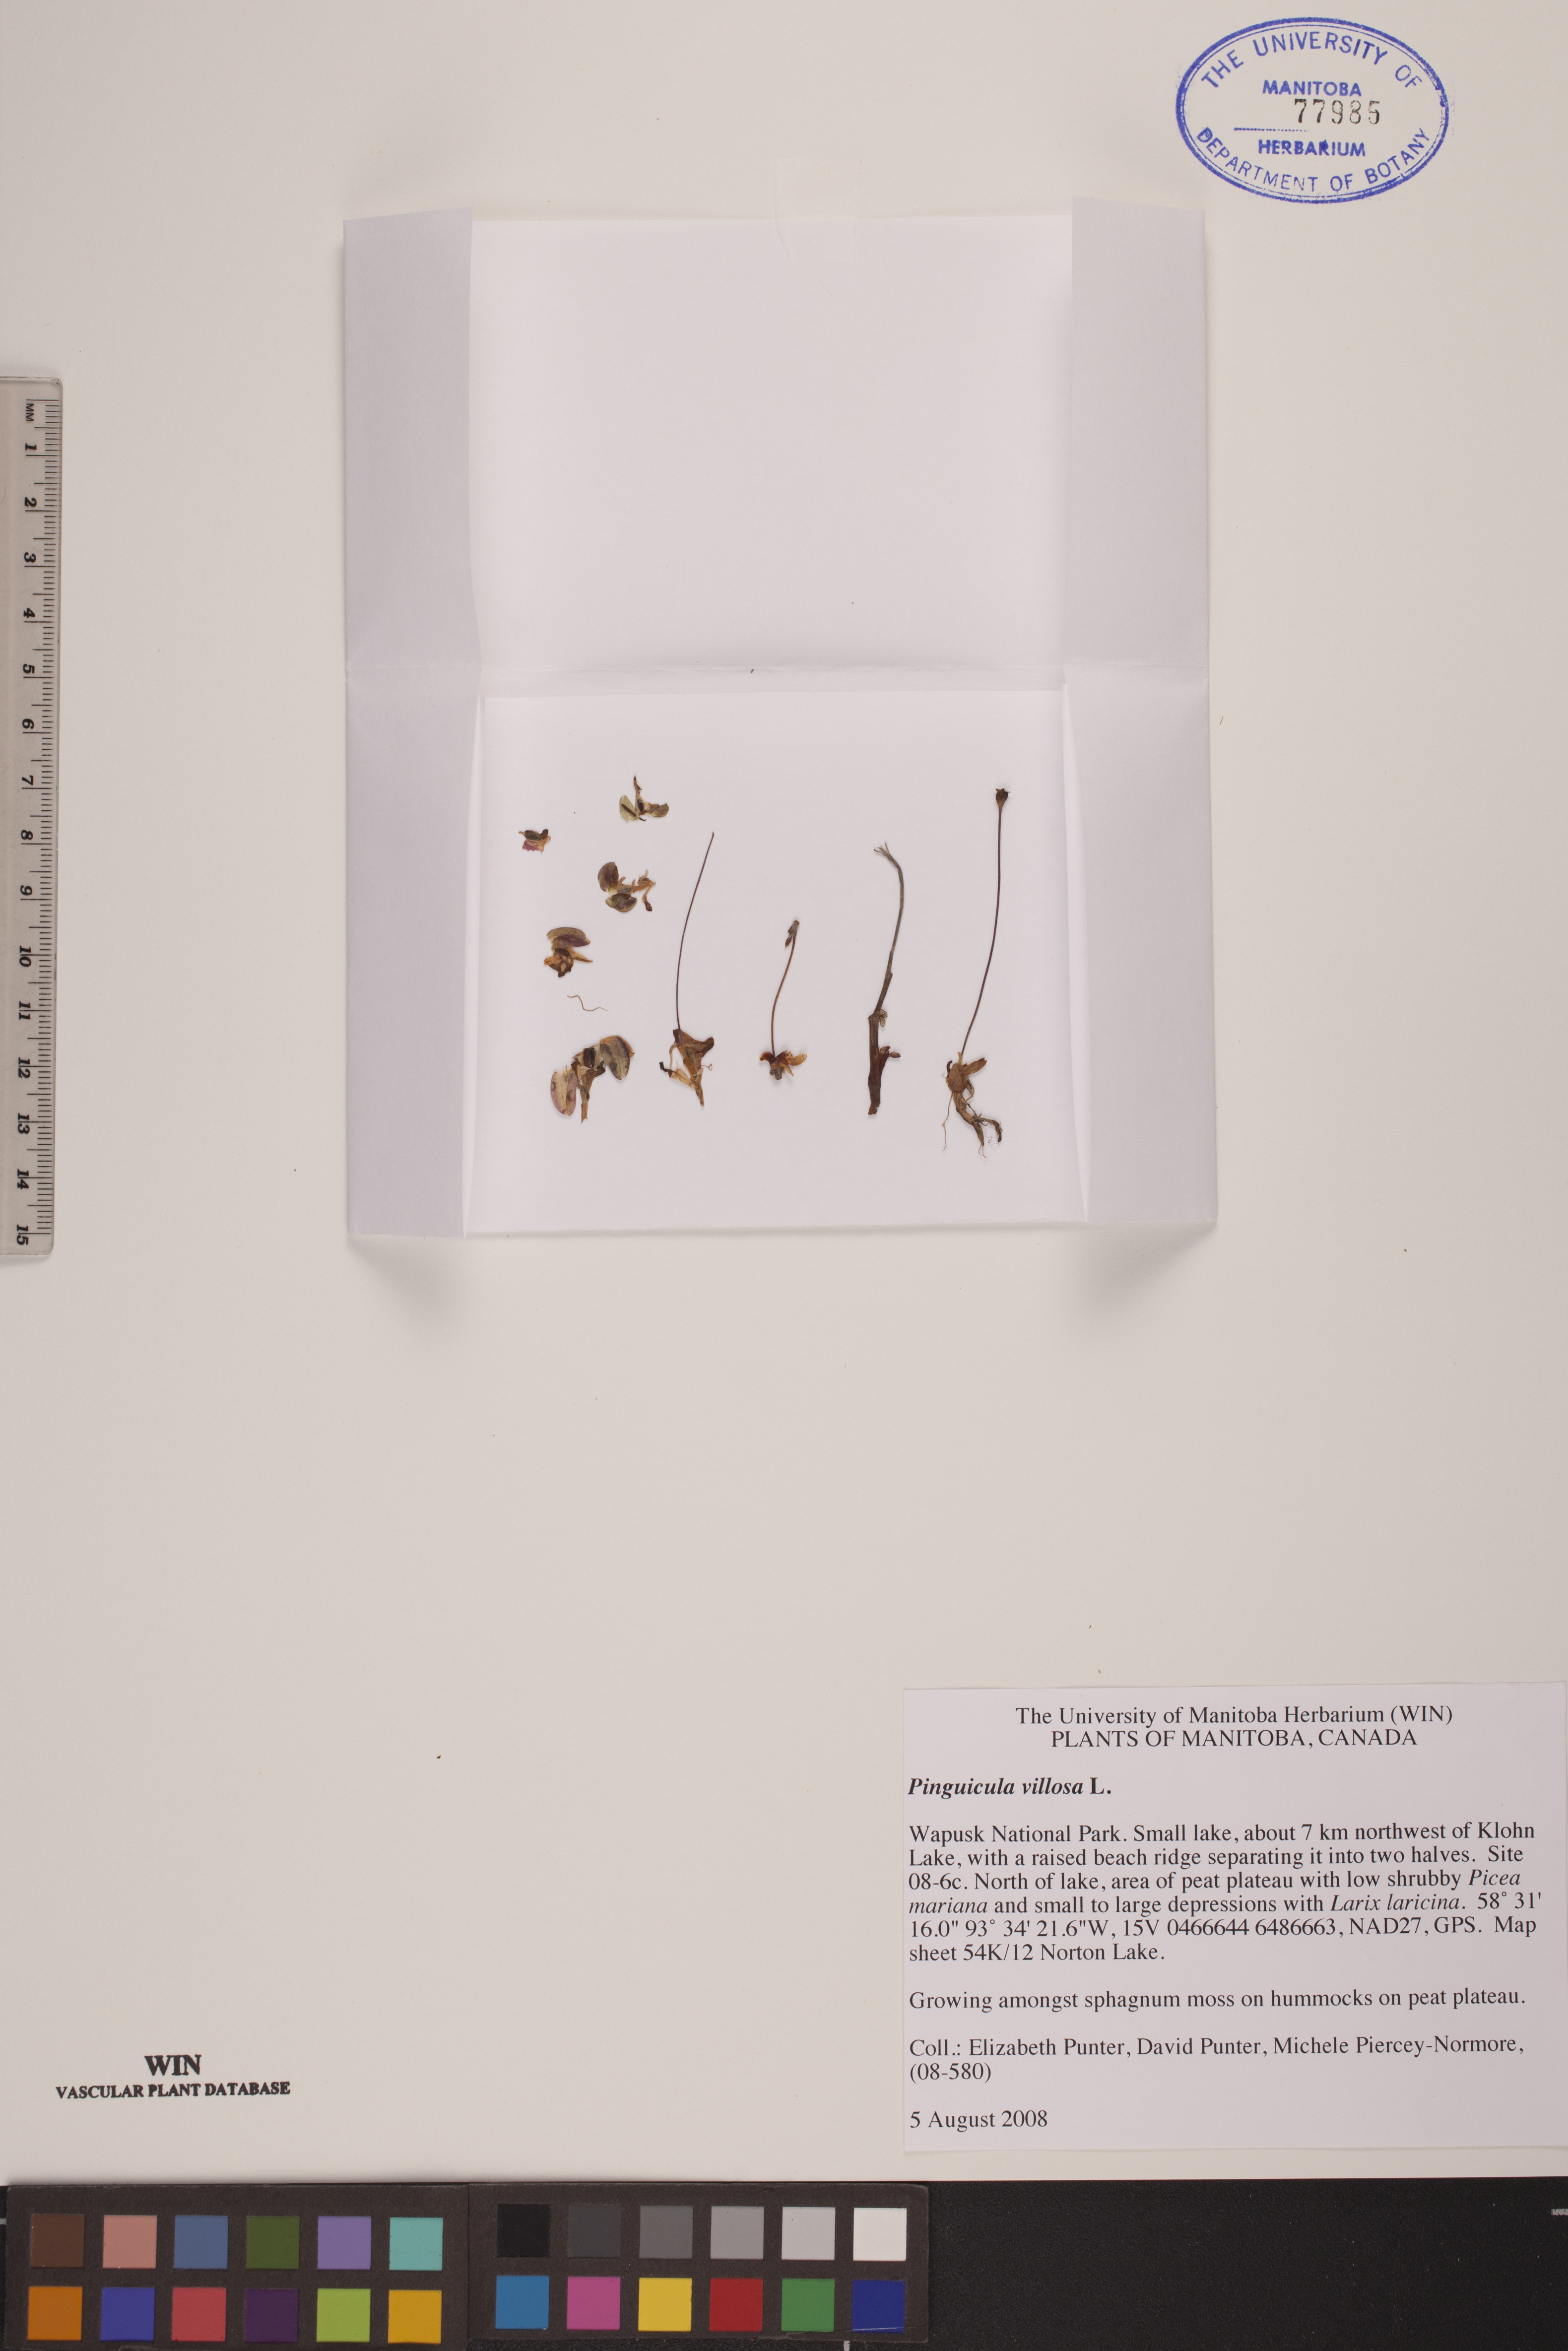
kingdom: Plantae
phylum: Tracheophyta
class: Magnoliopsida
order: Lamiales
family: Lentibulariaceae
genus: Pinguicula
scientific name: Pinguicula villosa
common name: Hairy butterwort
